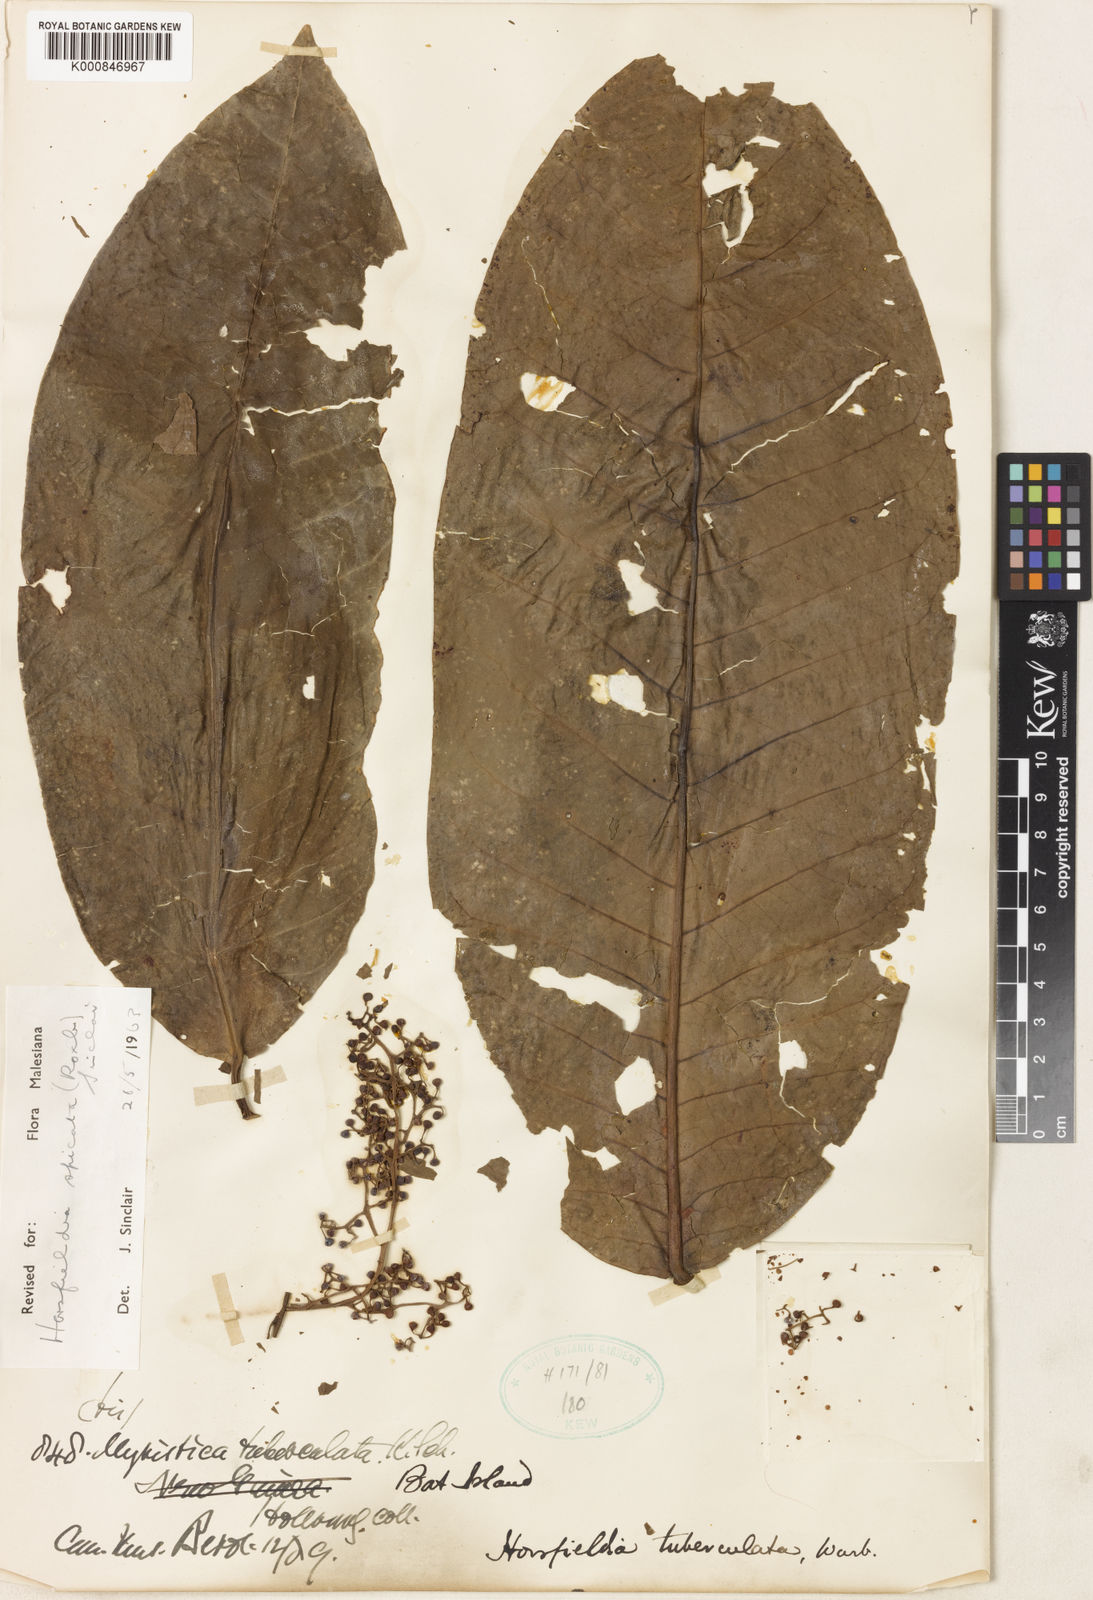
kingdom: Plantae
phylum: Tracheophyta
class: Magnoliopsida
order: Magnoliales
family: Myristicaceae
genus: Horsfieldia
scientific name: Horsfieldia tuberculata
